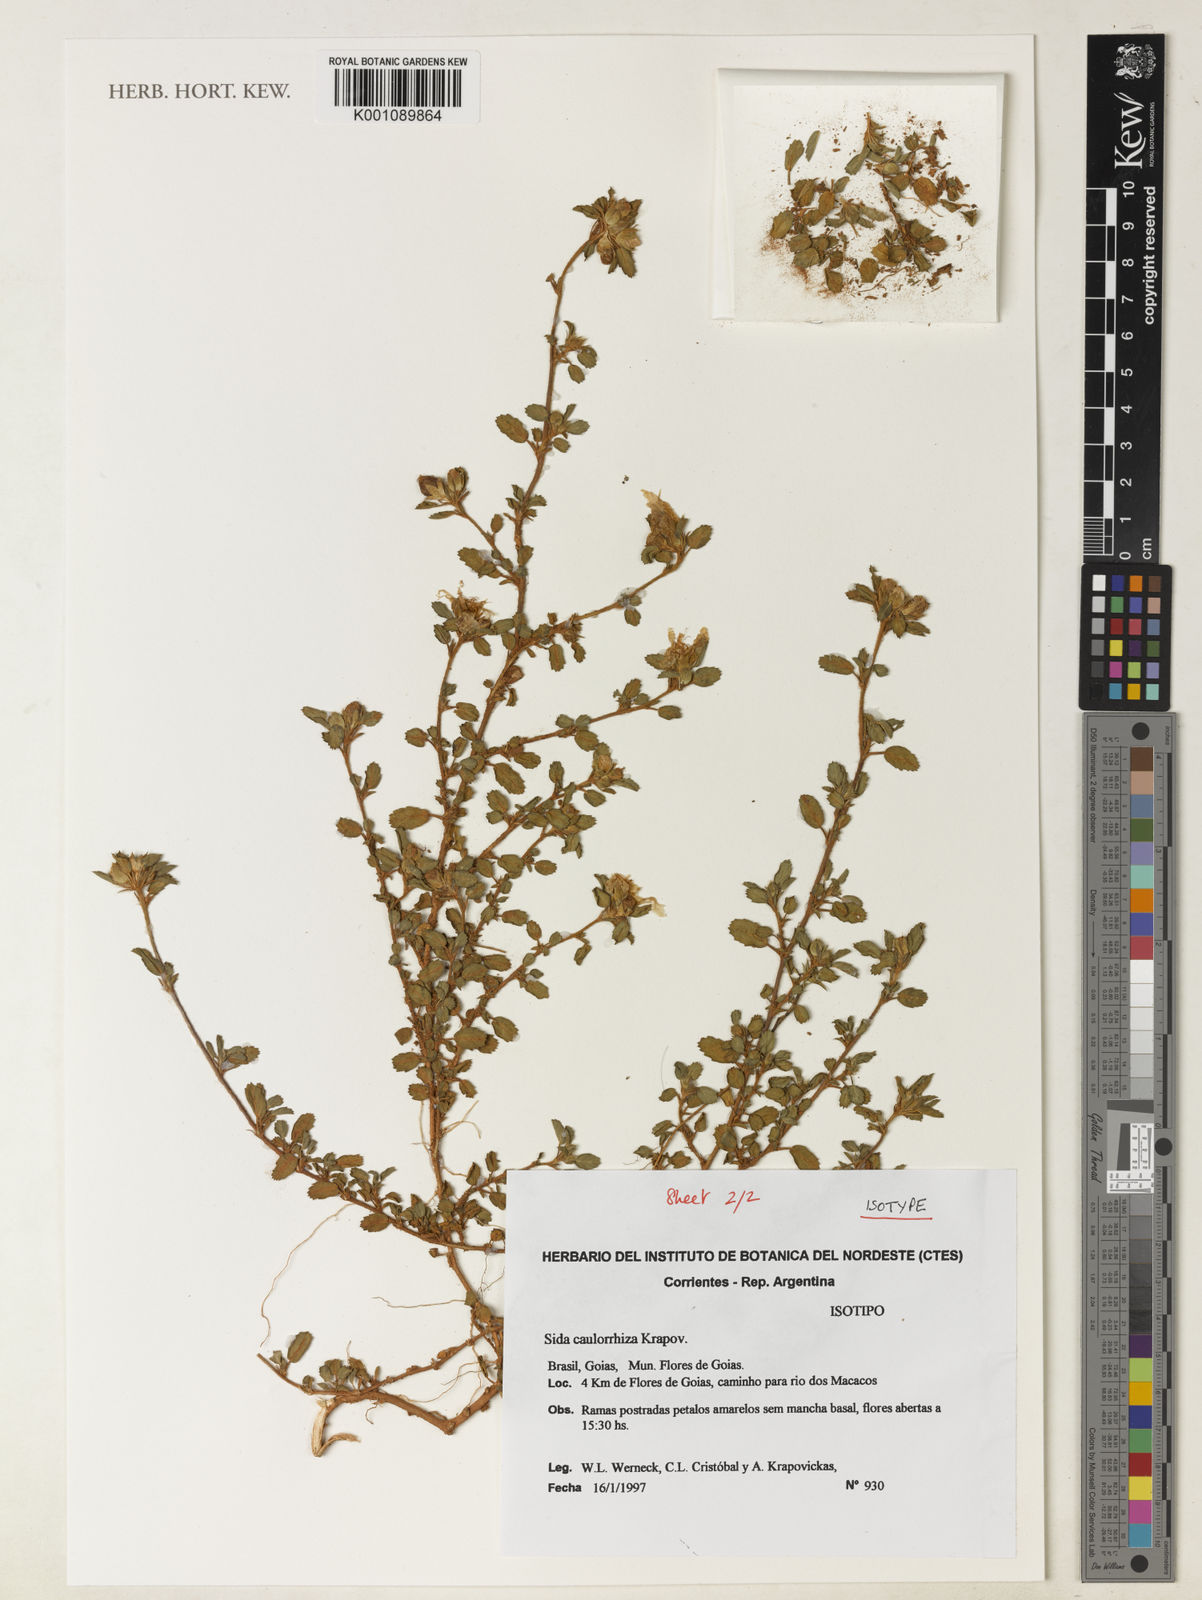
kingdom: Plantae
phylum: Tracheophyta
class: Magnoliopsida
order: Malvales
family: Malvaceae
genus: Sida
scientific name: Sida caulorrhiza
